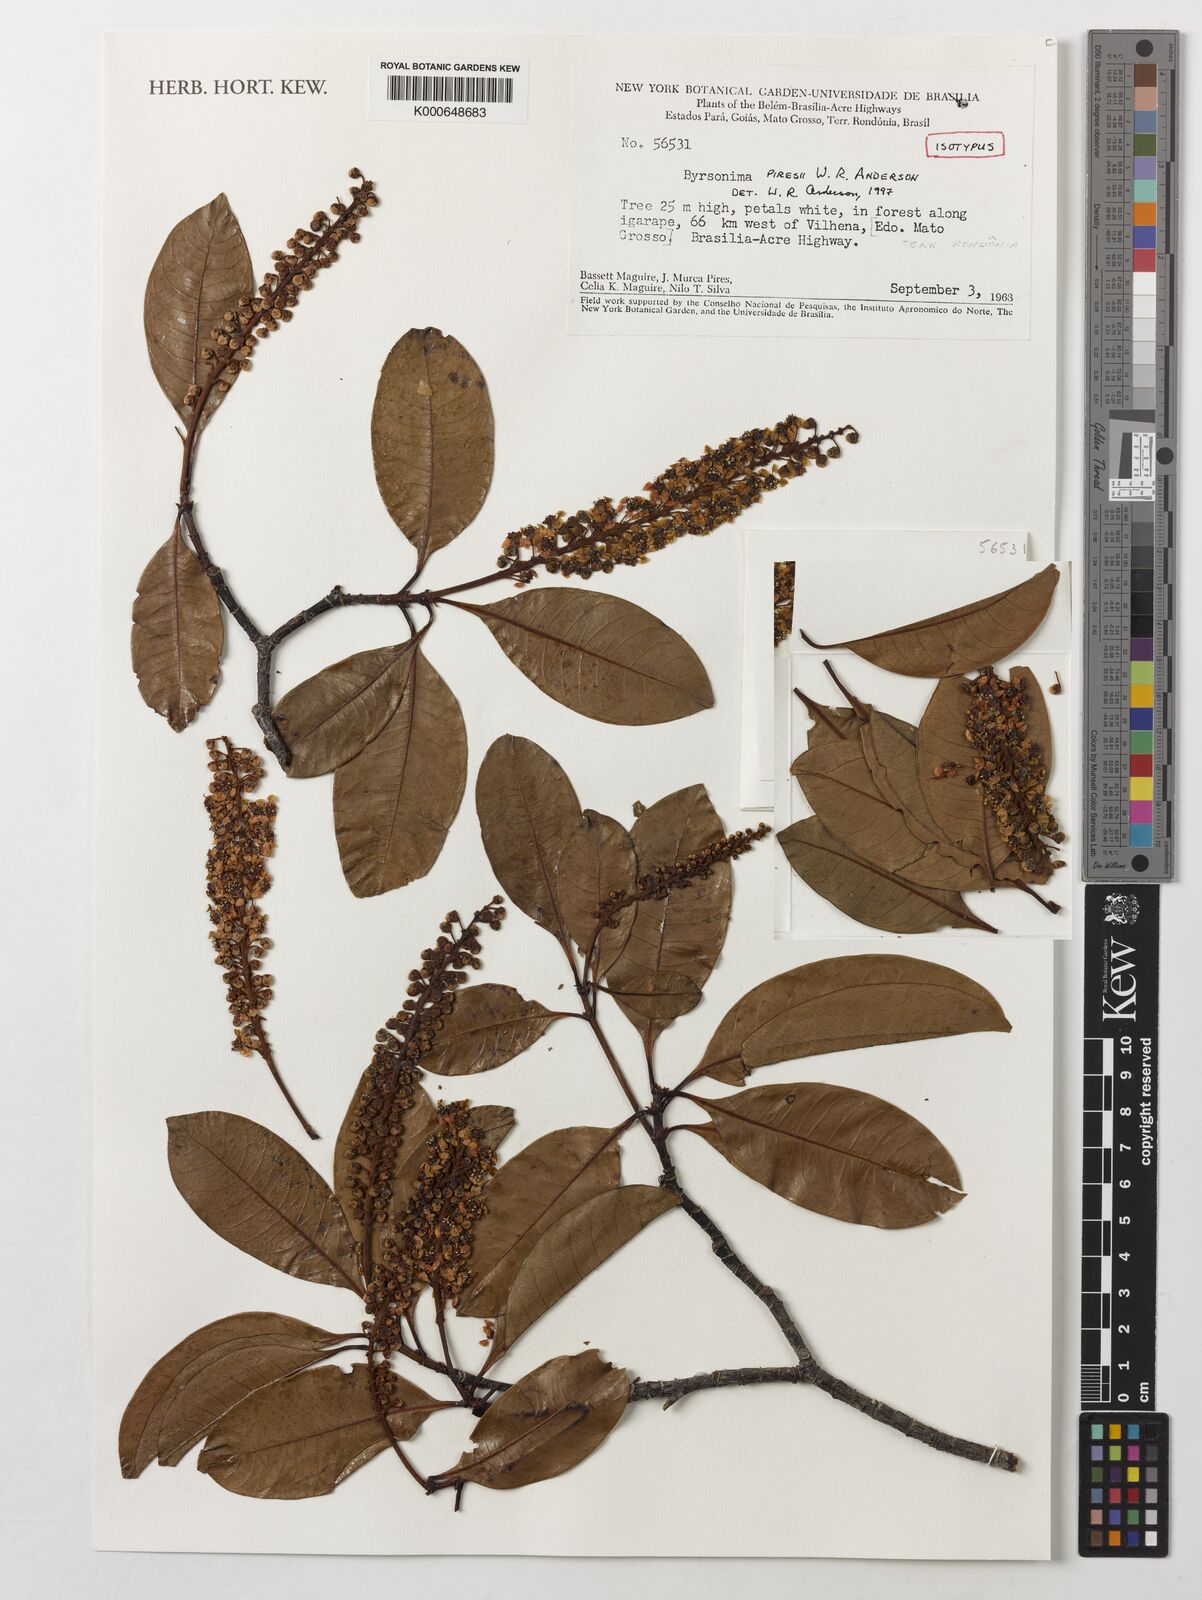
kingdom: Plantae
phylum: Tracheophyta
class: Magnoliopsida
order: Malpighiales
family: Malpighiaceae
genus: Byrsonima
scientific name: Byrsonima piresii
